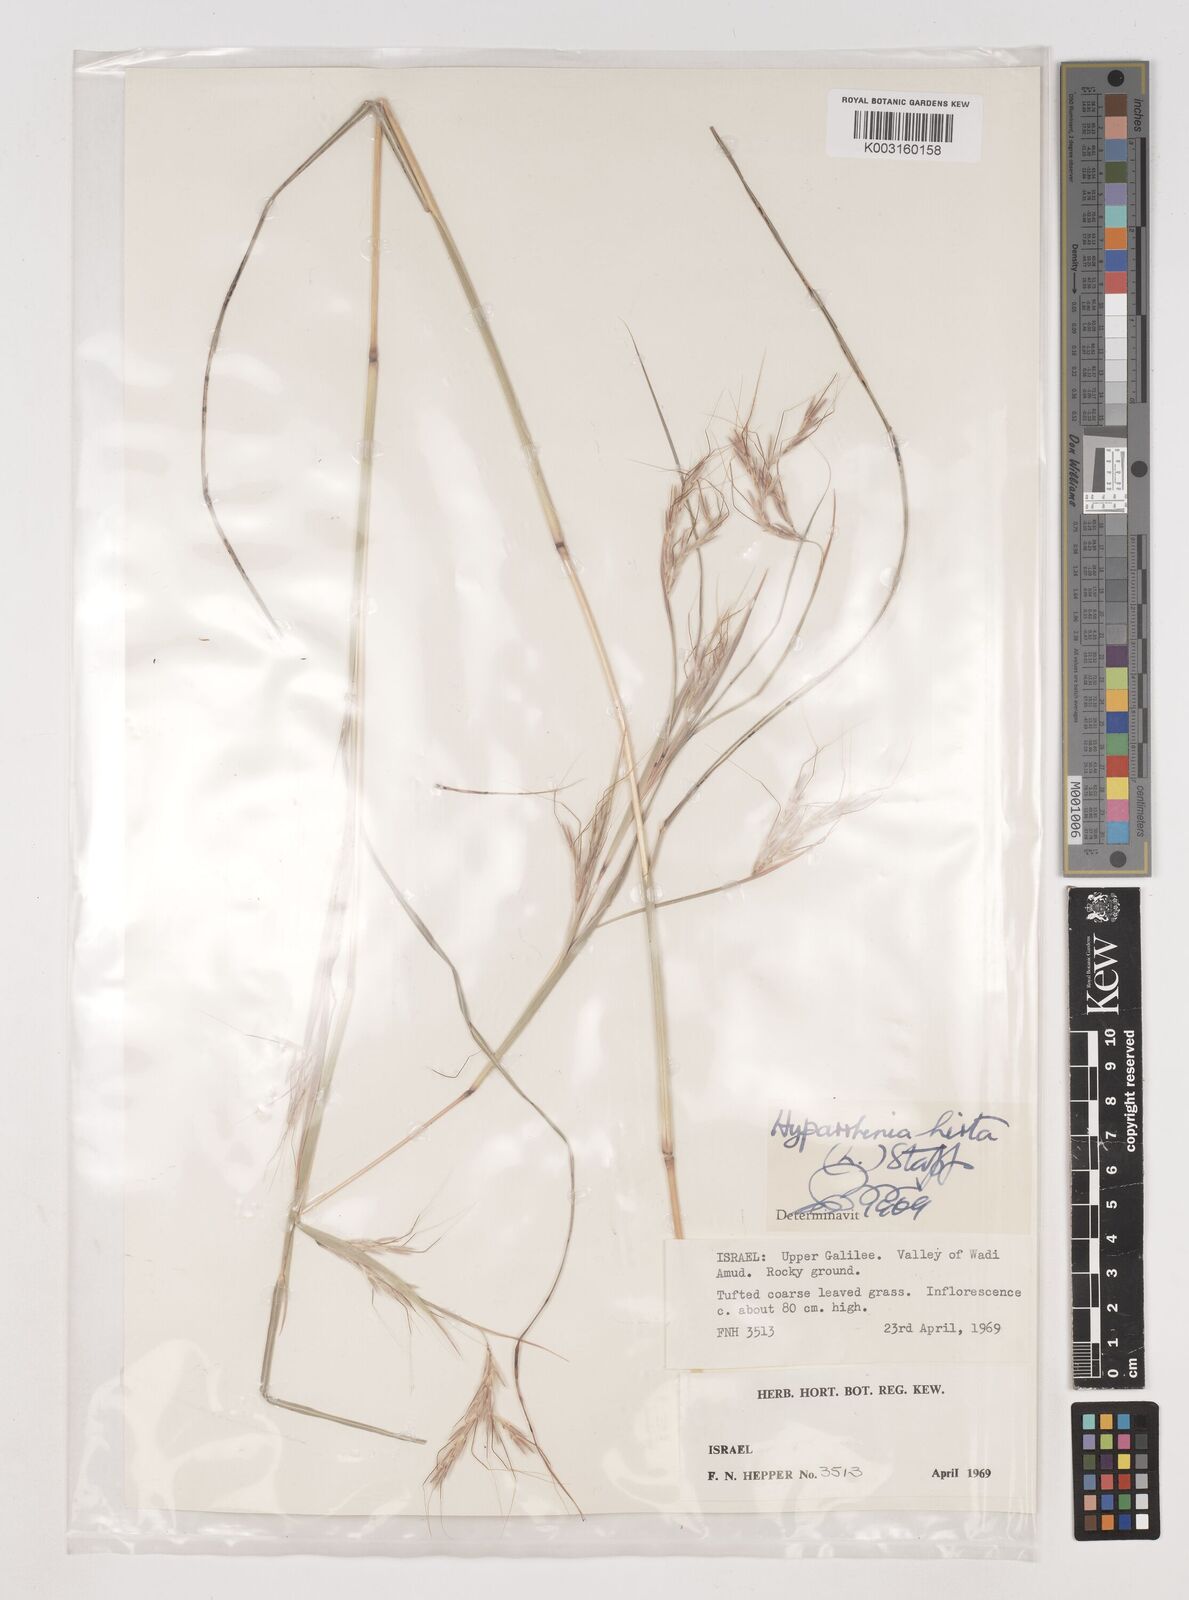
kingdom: Plantae
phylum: Tracheophyta
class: Liliopsida
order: Poales
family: Poaceae
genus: Hyparrhenia
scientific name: Hyparrhenia hirta
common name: Thatching grass
